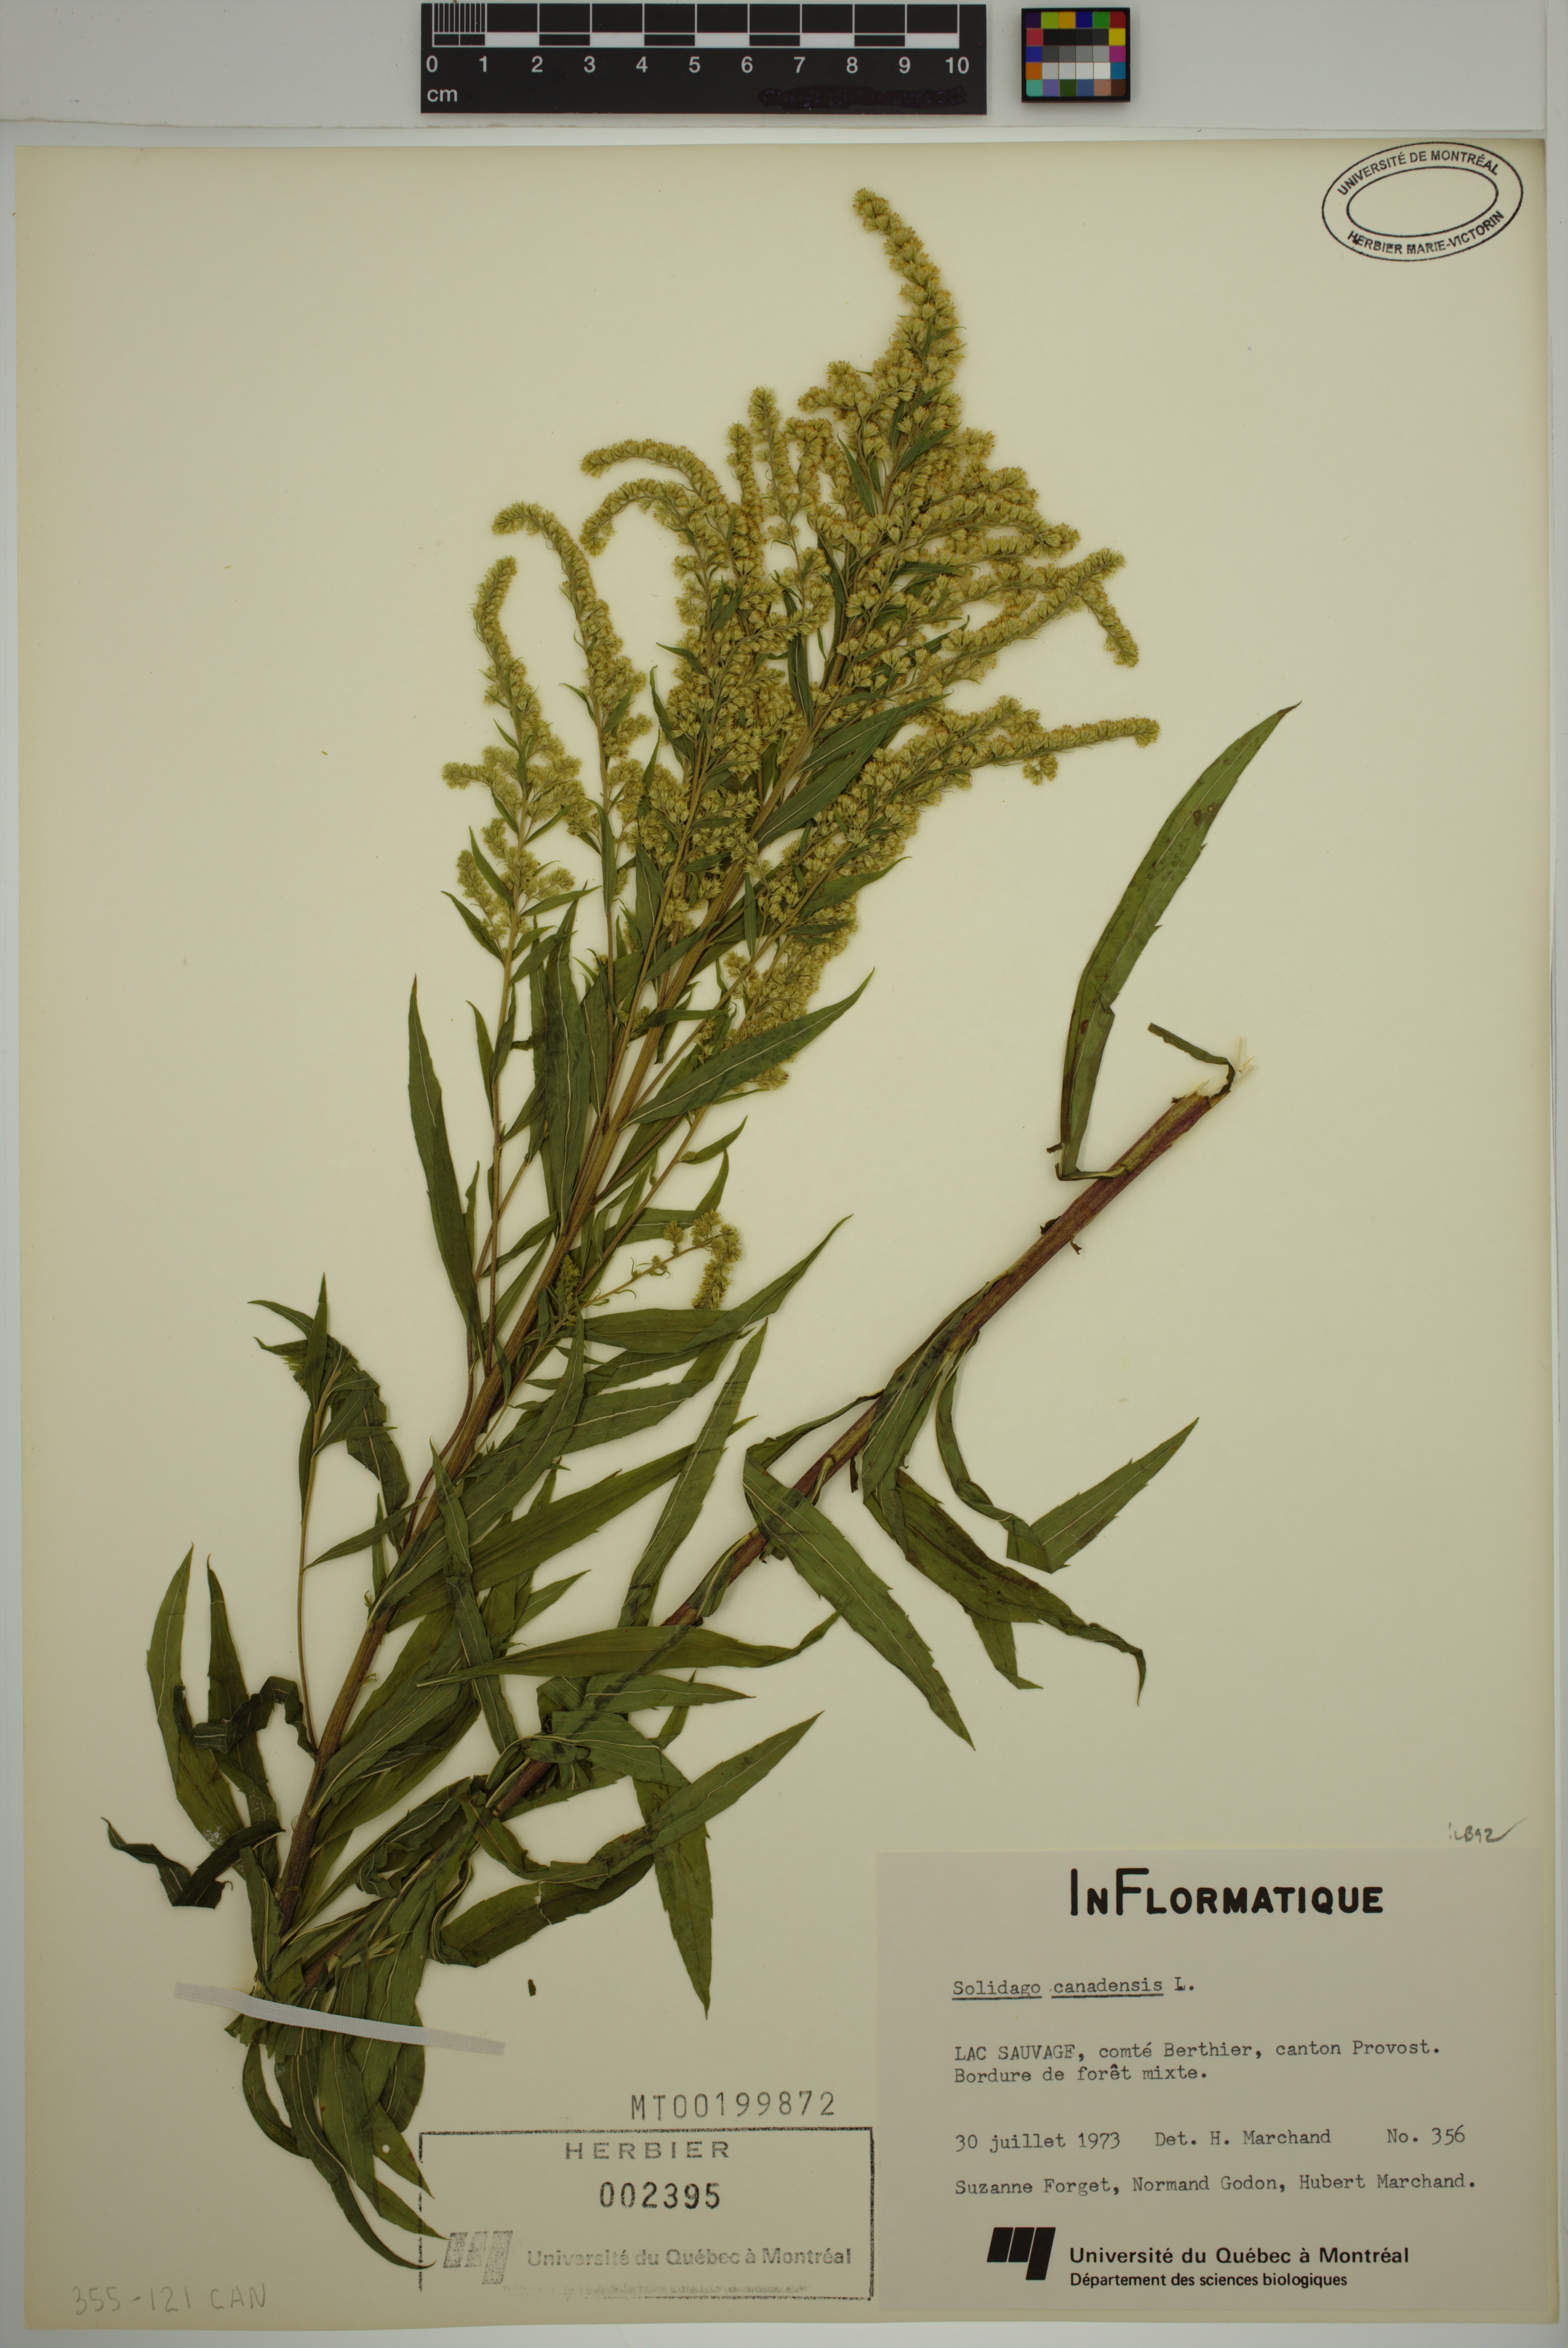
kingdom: Plantae
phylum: Tracheophyta
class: Magnoliopsida
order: Asterales
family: Asteraceae
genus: Solidago
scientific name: Solidago canadensis
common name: Canada goldenrod
